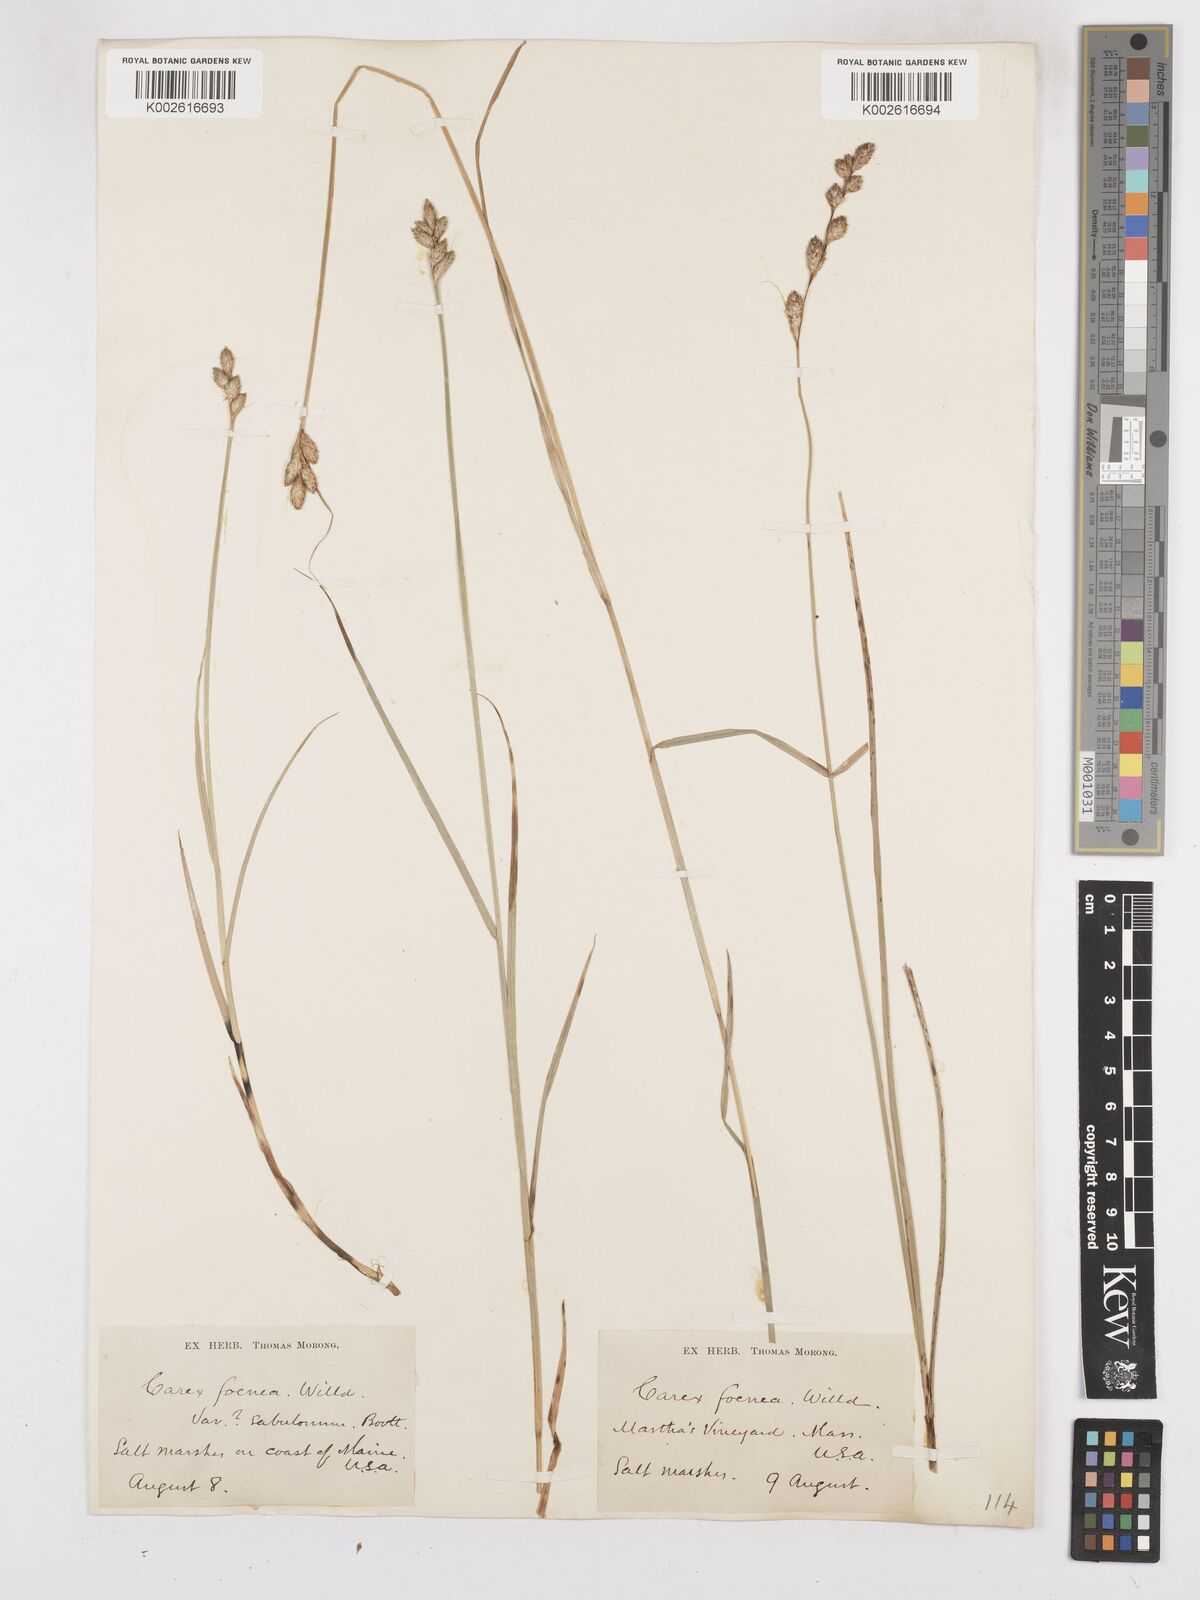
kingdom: Plantae
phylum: Tracheophyta
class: Liliopsida
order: Poales
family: Cyperaceae
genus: Carex
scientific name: Carex argyrantha
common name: Silvery-flowered sedge
